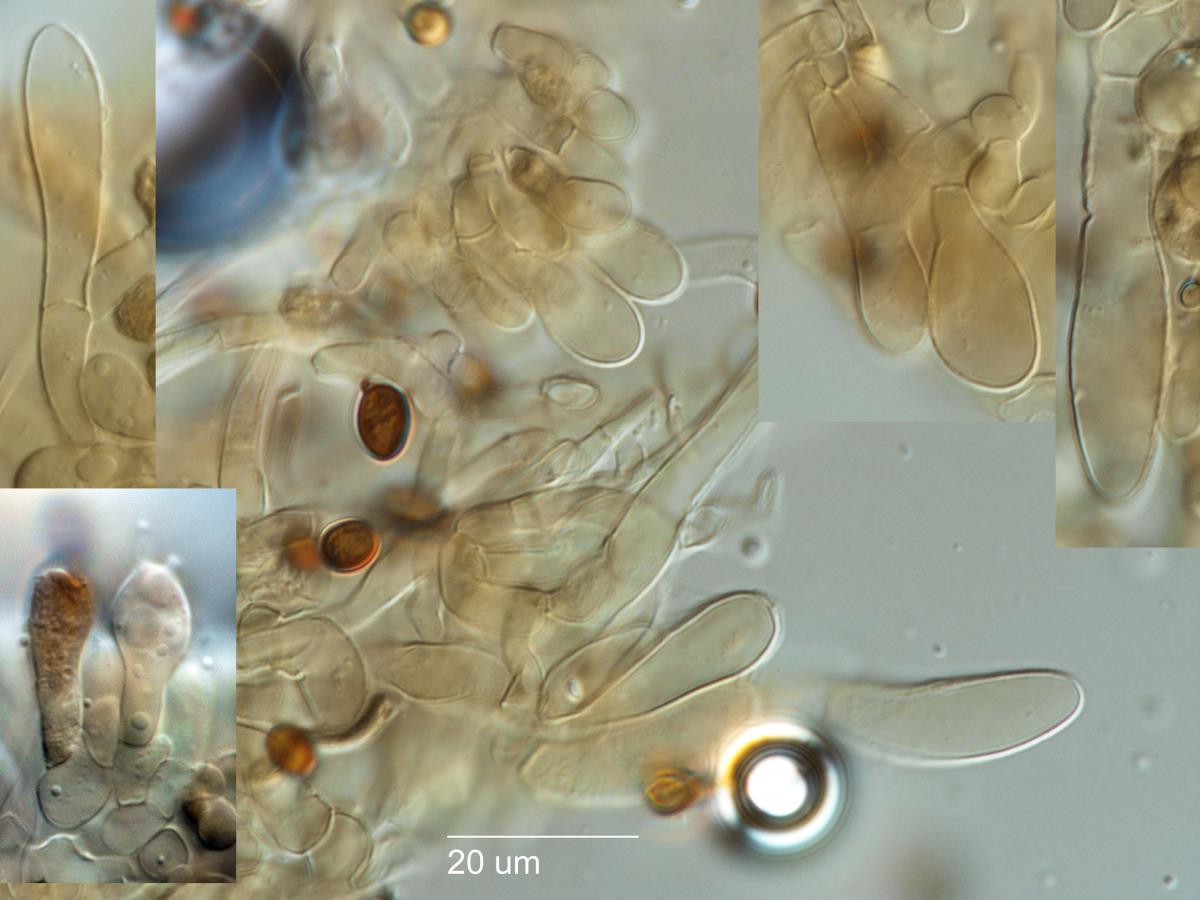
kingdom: Fungi
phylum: Basidiomycota
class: Agaricomycetes
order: Agaricales
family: Agaricaceae
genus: Agaricus
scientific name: Agaricus
